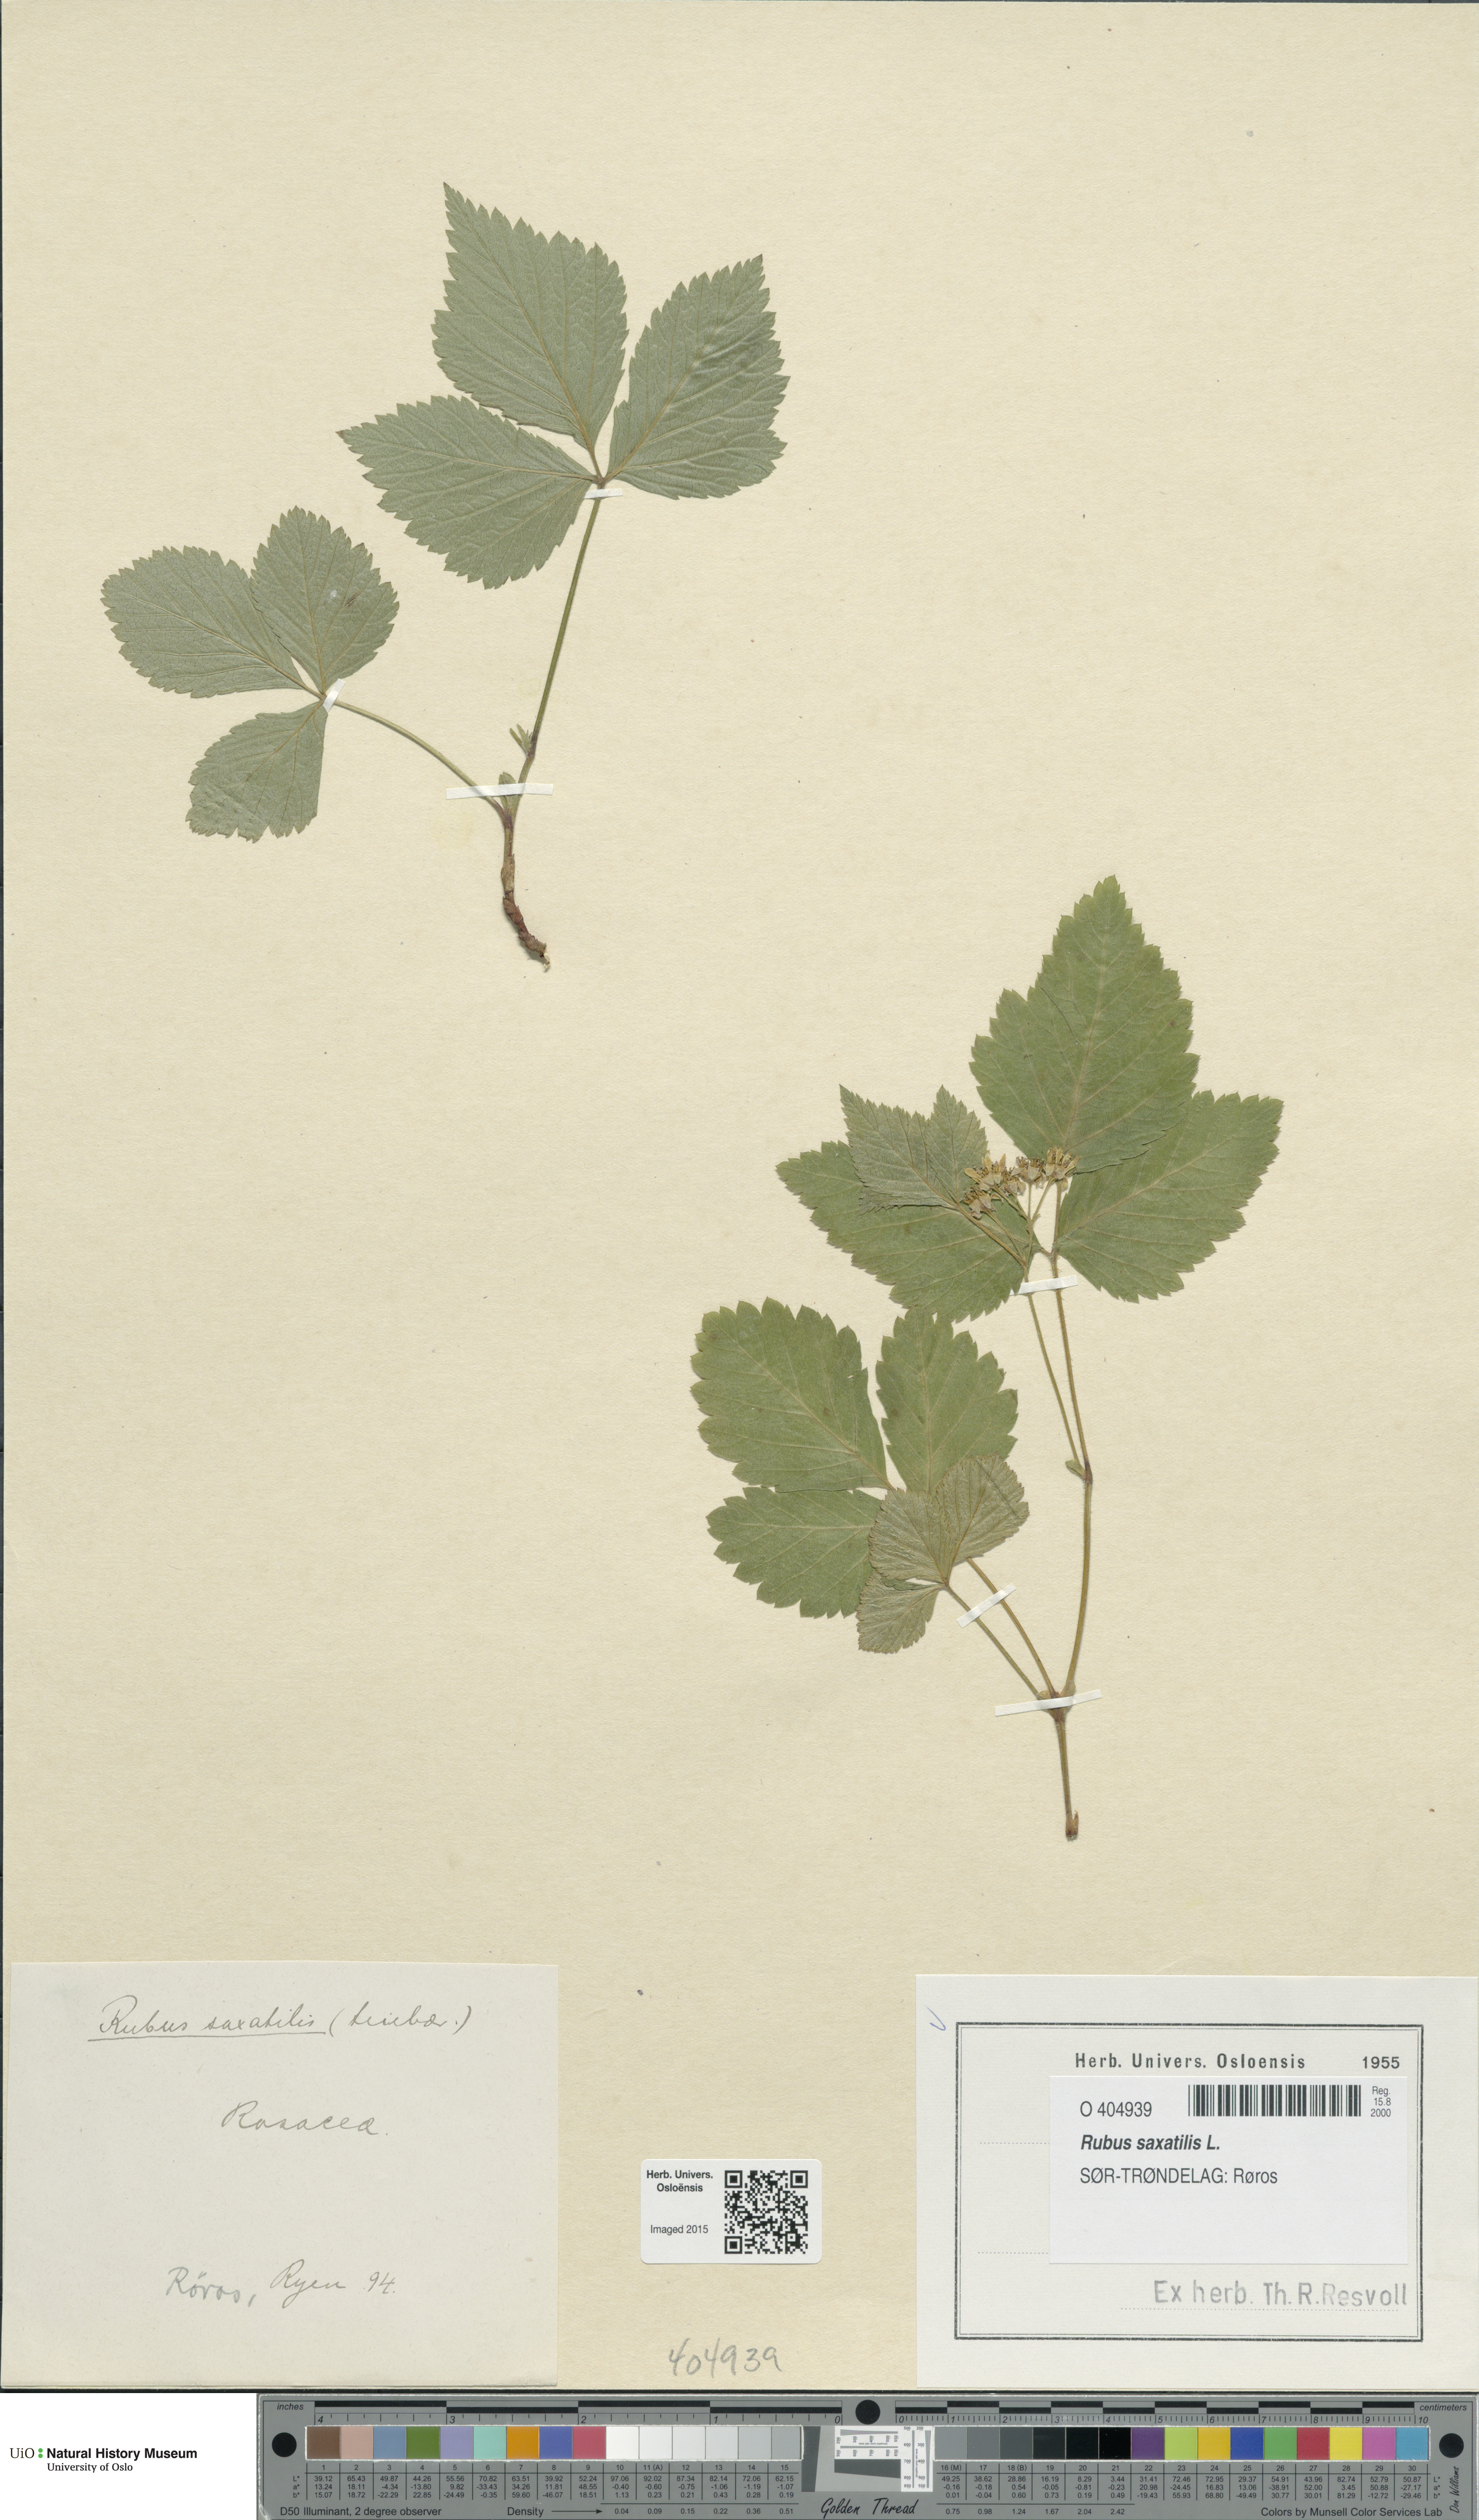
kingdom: Plantae
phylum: Tracheophyta
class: Magnoliopsida
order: Rosales
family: Rosaceae
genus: Rubus
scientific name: Rubus saxatilis
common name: Stone bramble
